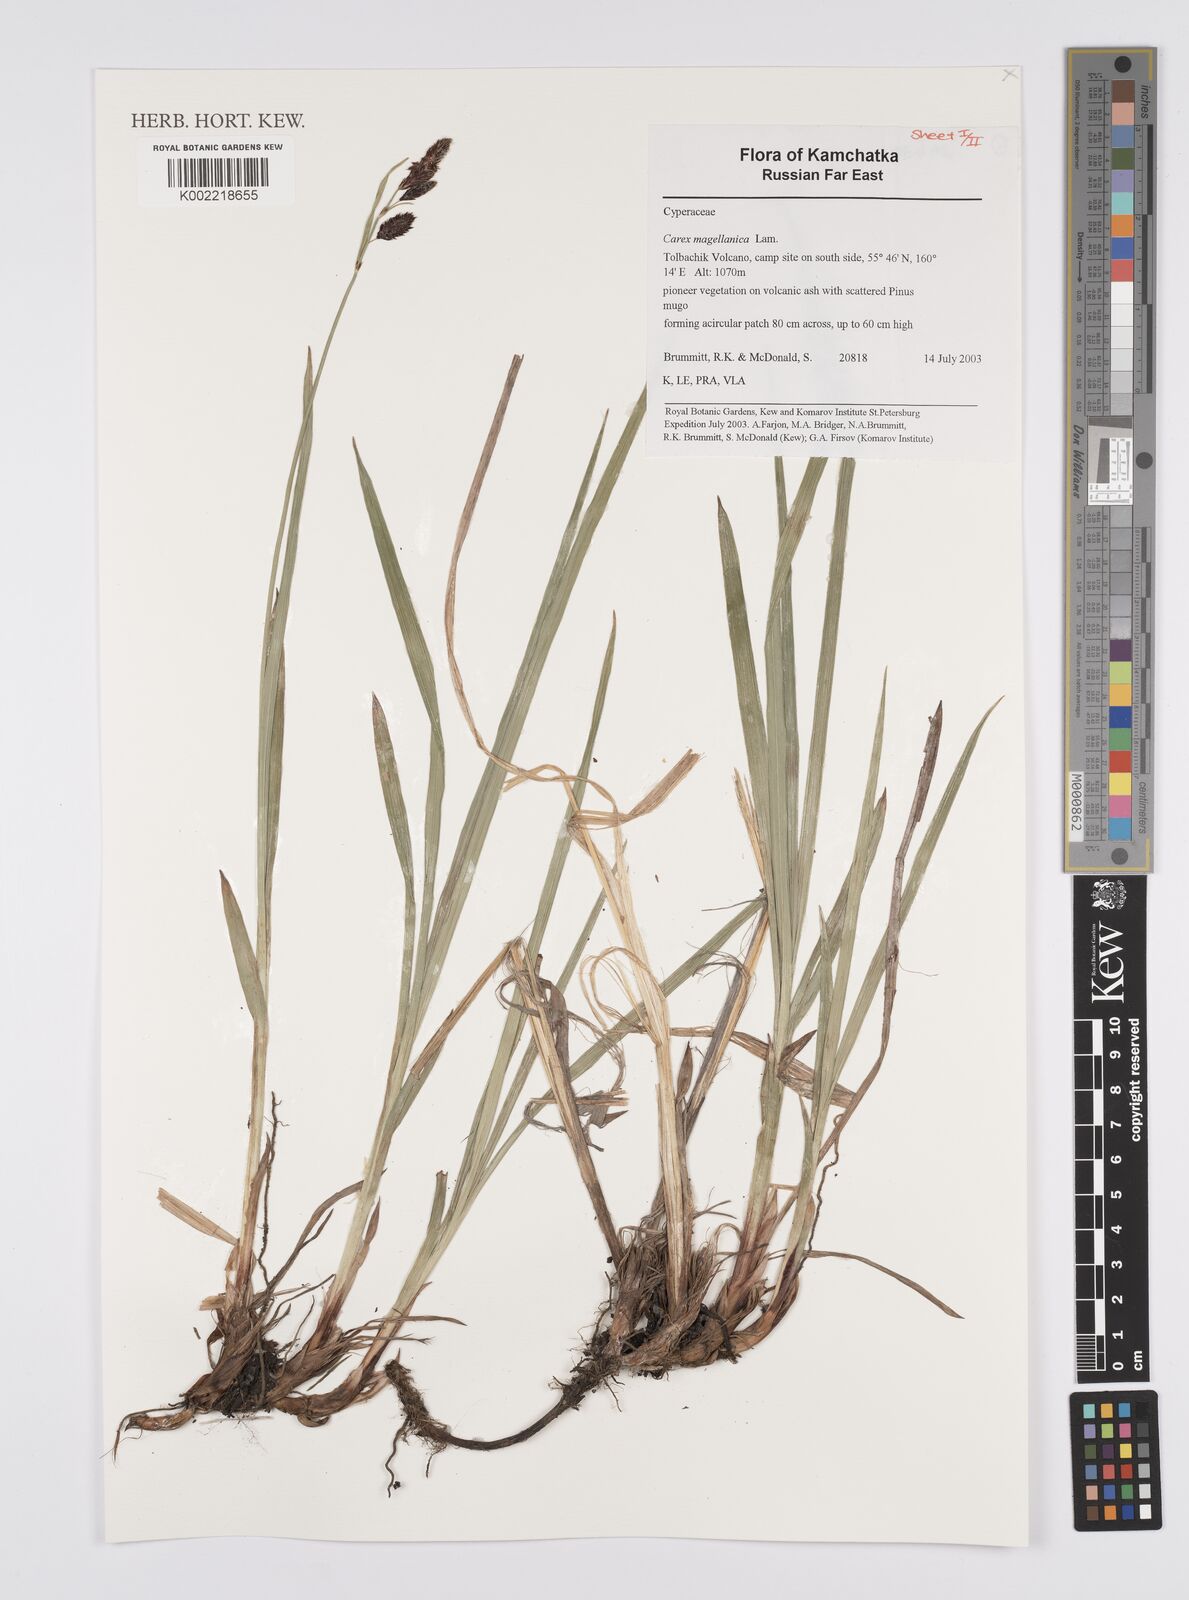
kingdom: Plantae
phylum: Tracheophyta
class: Liliopsida
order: Poales
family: Cyperaceae
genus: Carex
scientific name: Carex magellanica
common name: Bog sedge
